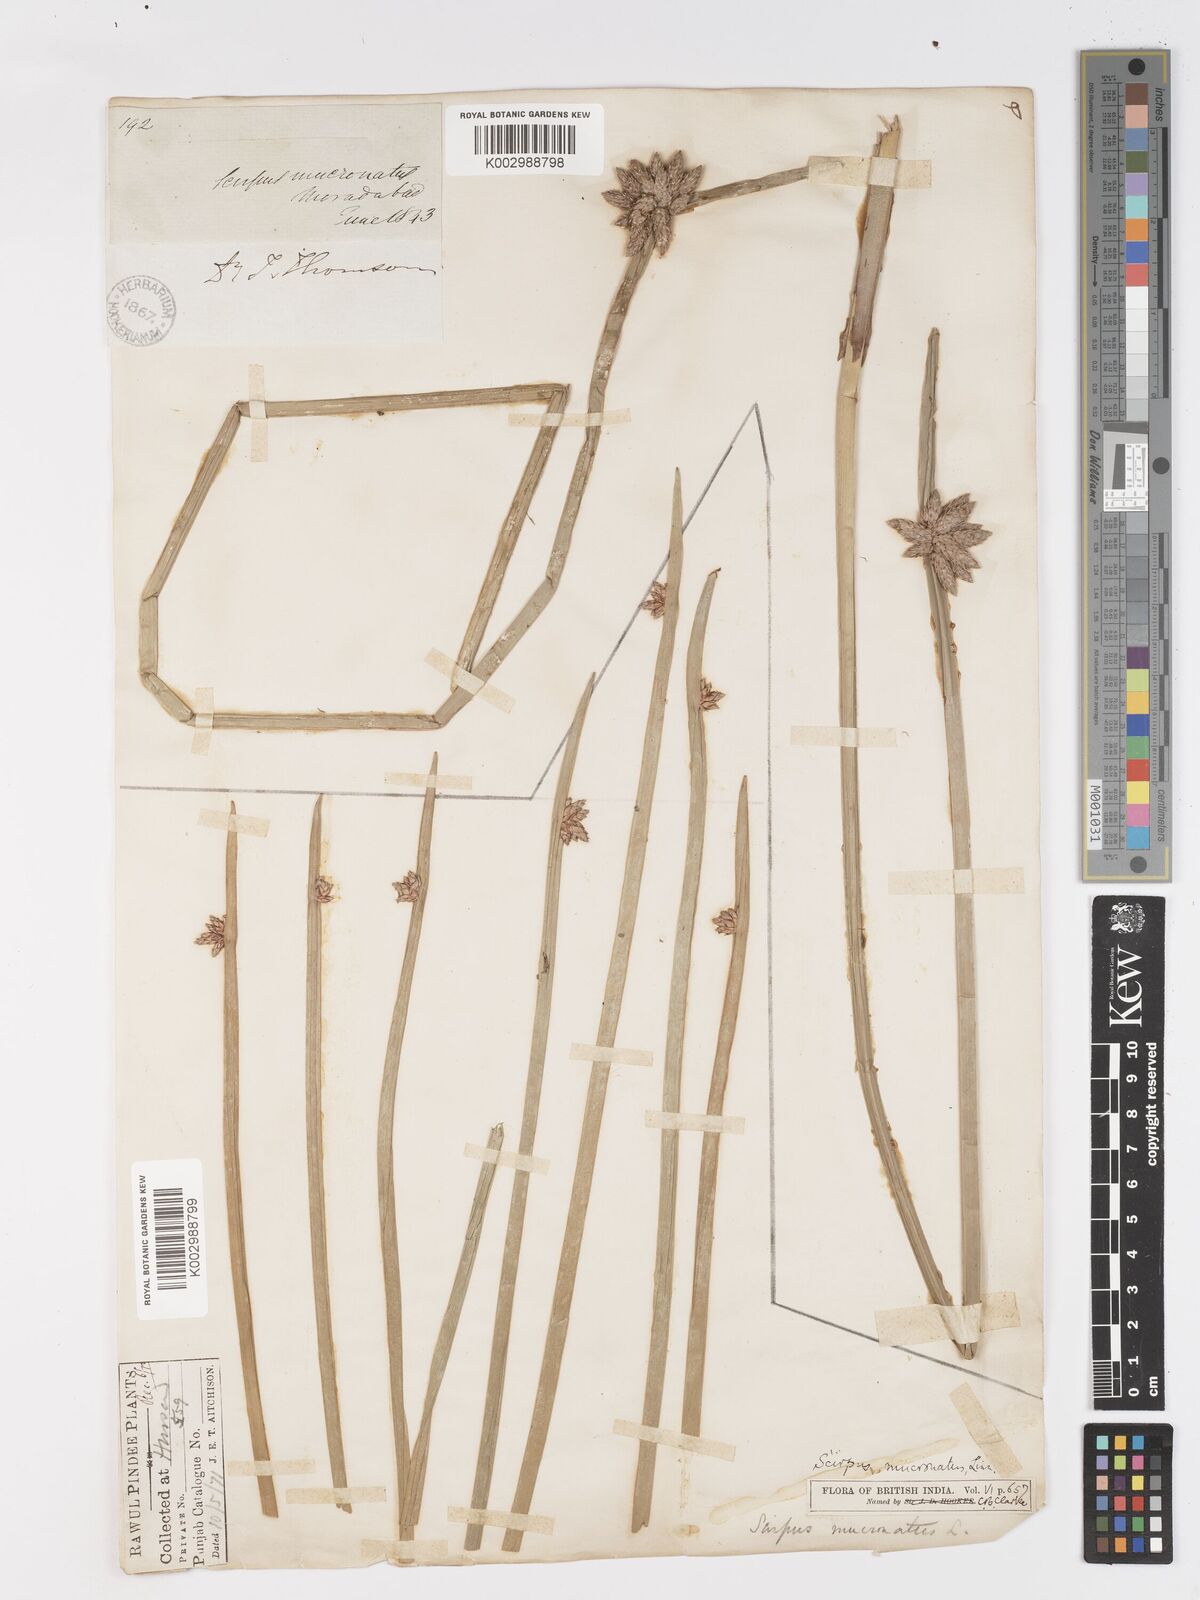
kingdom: Plantae
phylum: Tracheophyta
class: Liliopsida
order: Poales
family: Cyperaceae
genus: Schoenoplectiella
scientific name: Schoenoplectiella mucronata
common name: Bog bulrush
